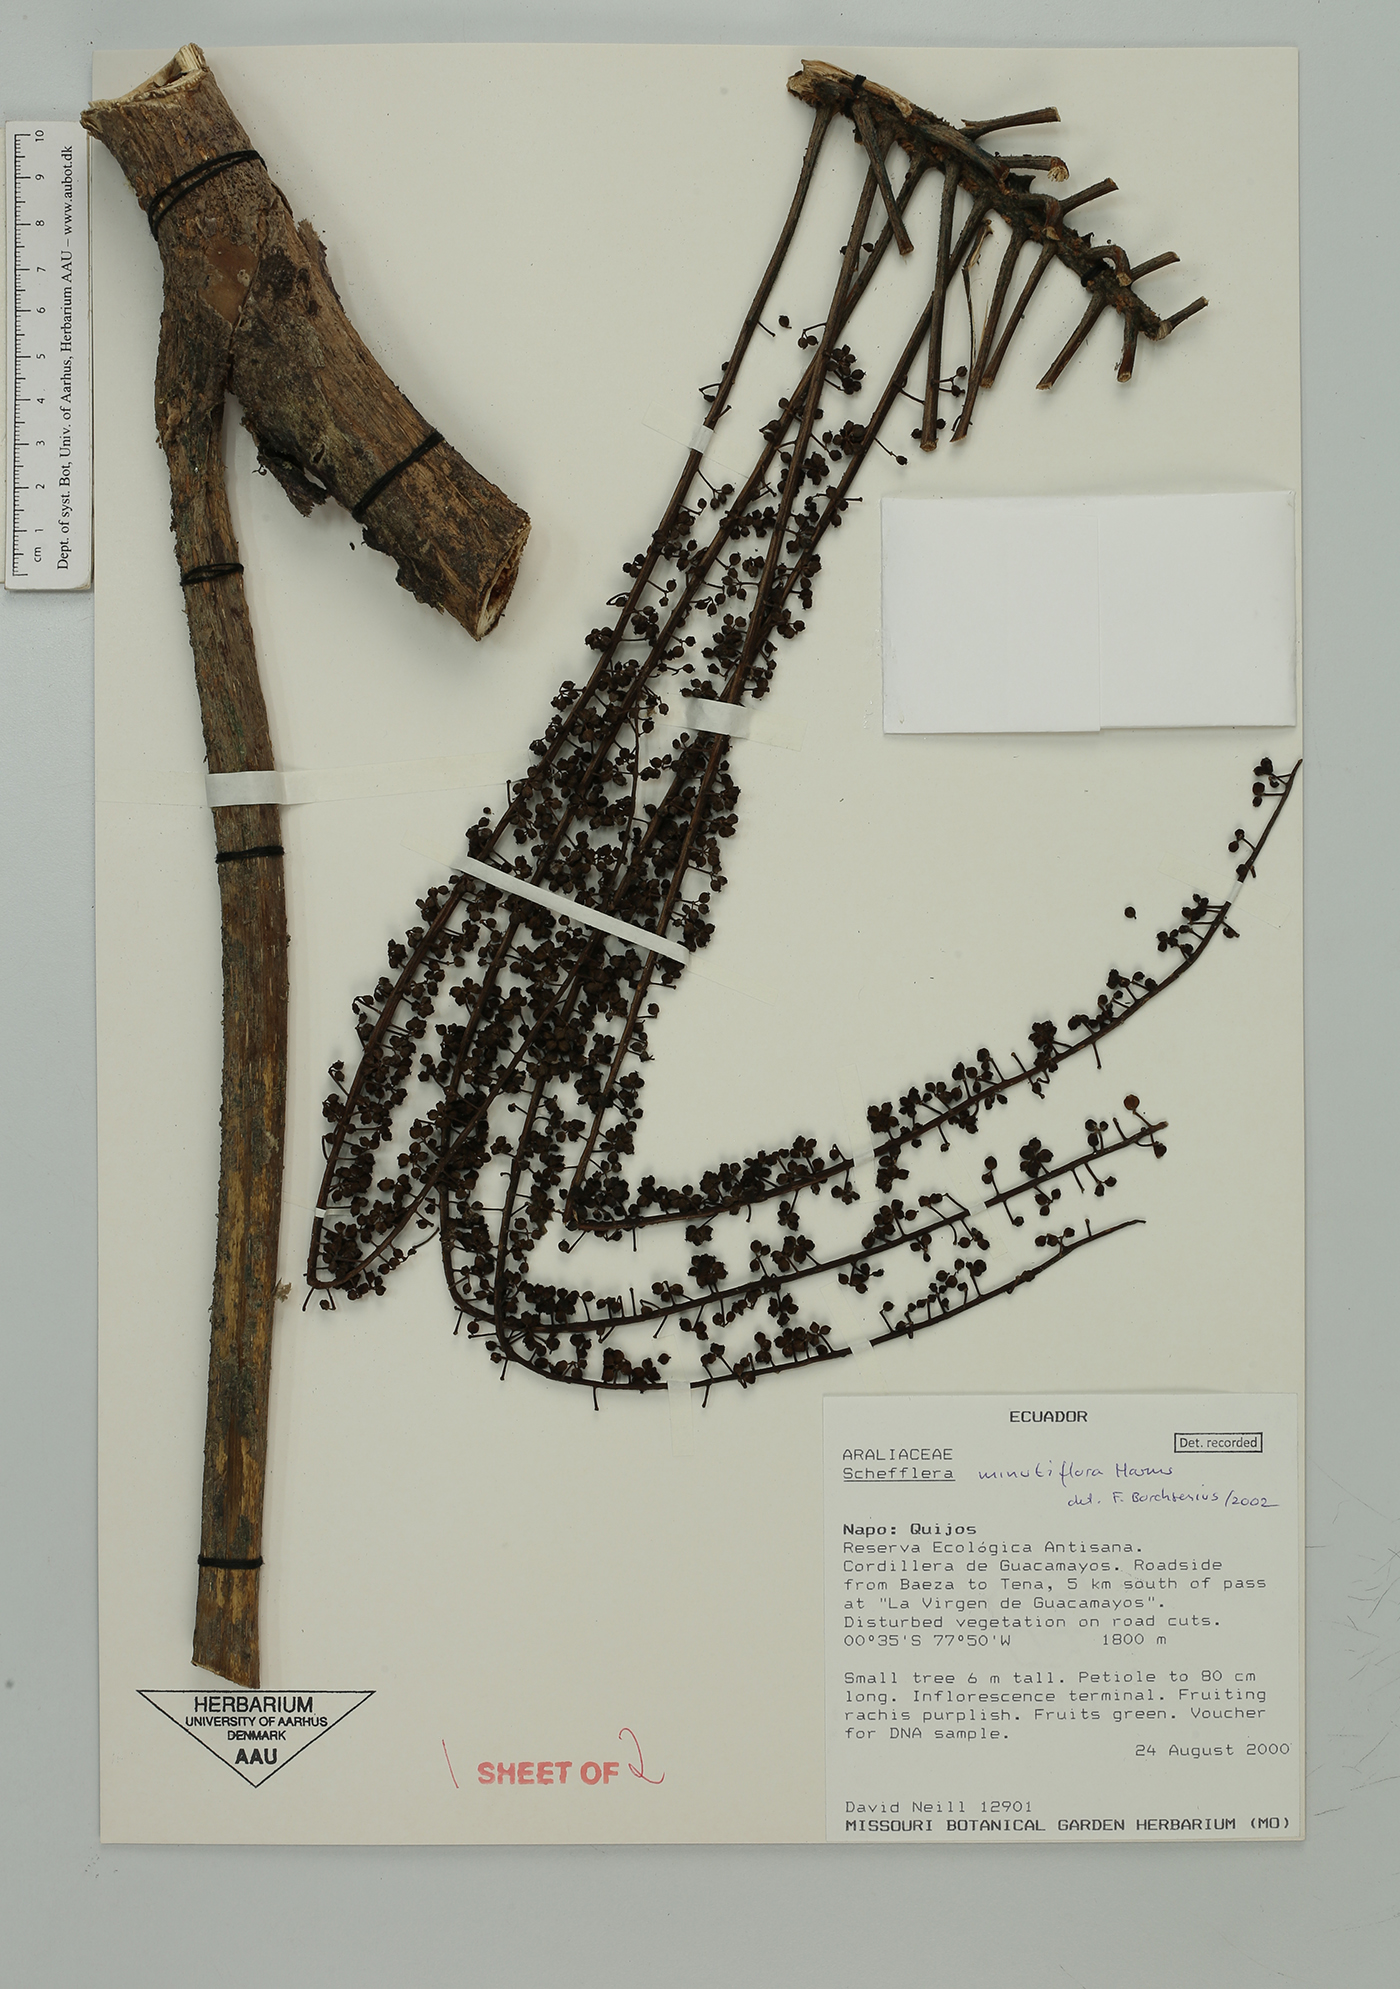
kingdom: Plantae
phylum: Tracheophyta
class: Magnoliopsida
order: Apiales
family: Araliaceae
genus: Sciodaphyllum
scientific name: Sciodaphyllum minutiflorum
